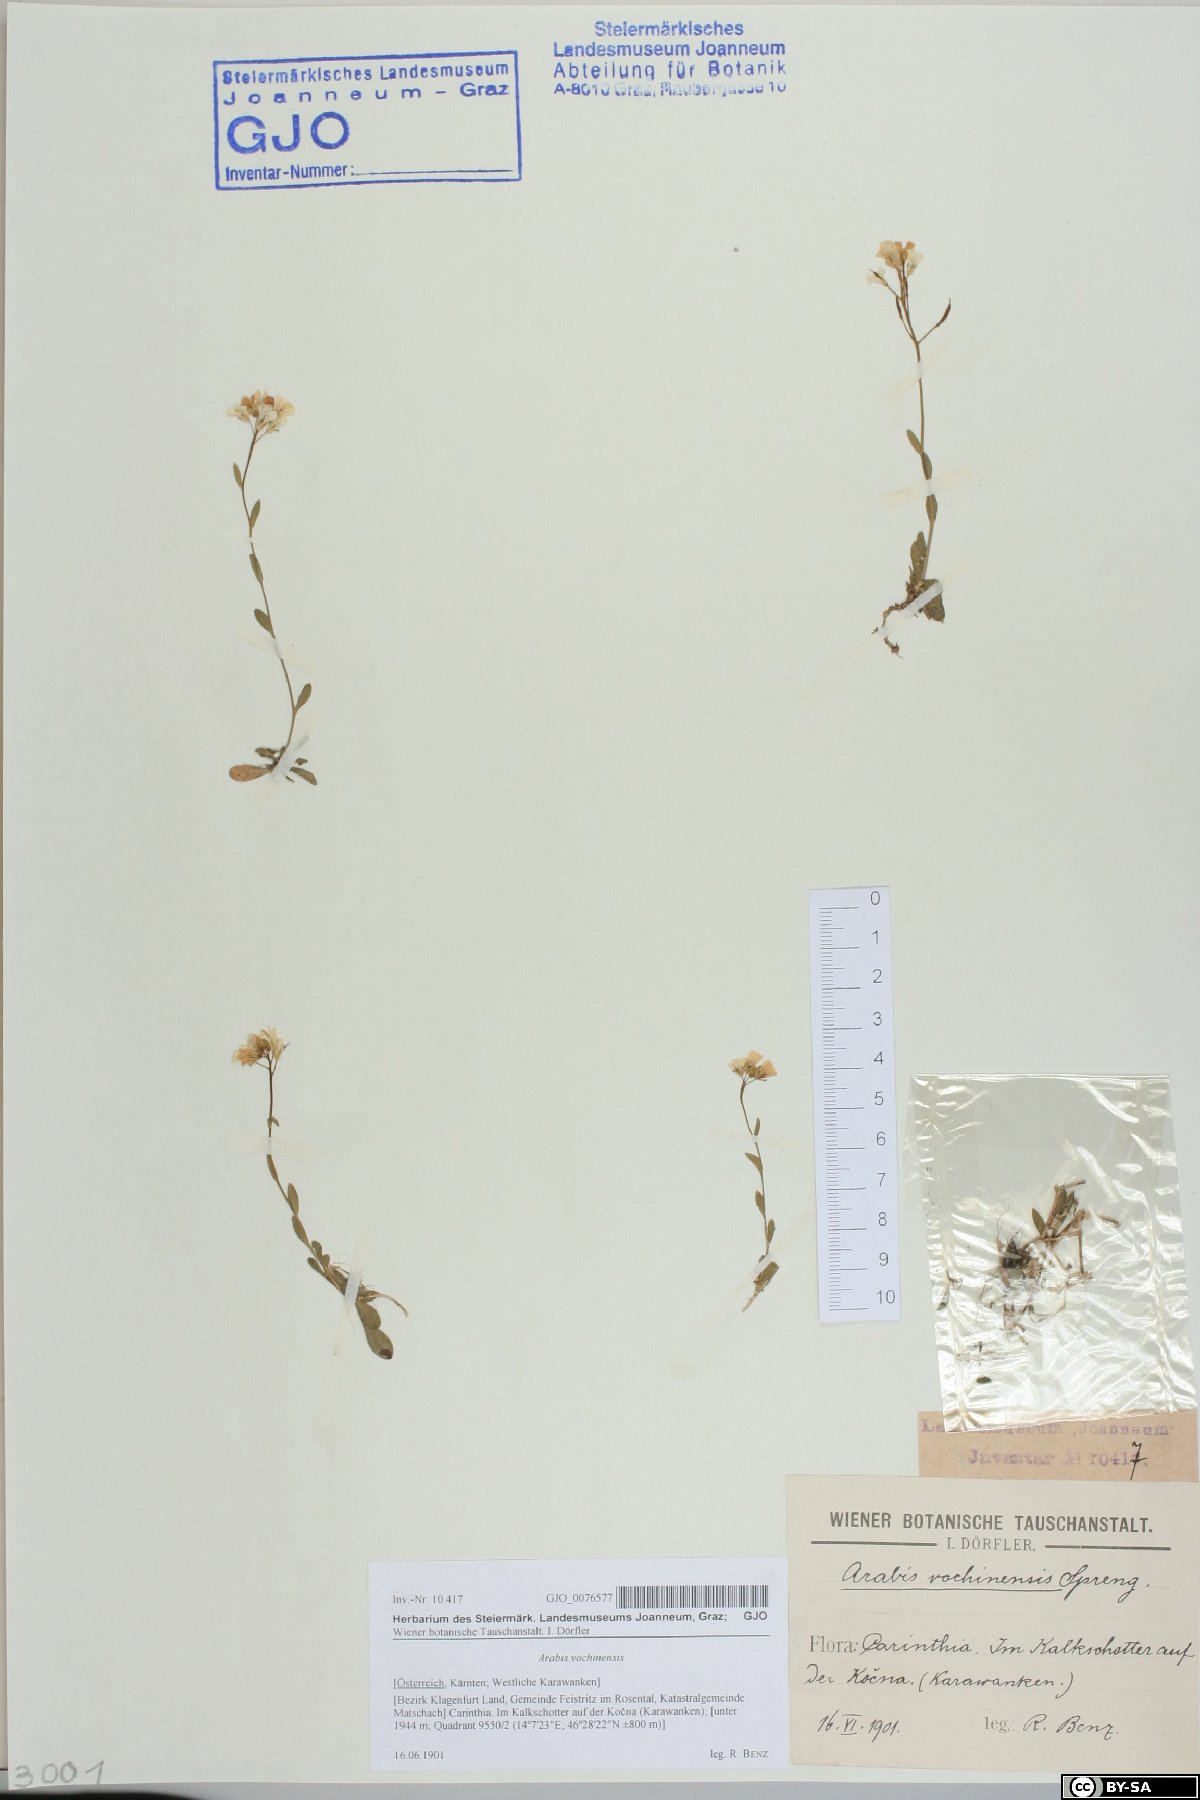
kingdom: Plantae
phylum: Tracheophyta
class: Magnoliopsida
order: Brassicales
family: Brassicaceae
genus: Arabis
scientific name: Arabis vochinensis
